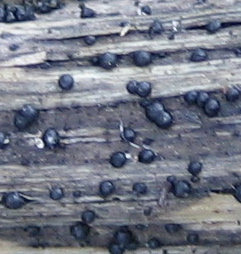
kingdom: Fungi
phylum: Ascomycota
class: Dothideomycetes
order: Pleosporales
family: Leptosphaeriaceae
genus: Leptosphaeria
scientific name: Leptosphaeria
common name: kulkegle
